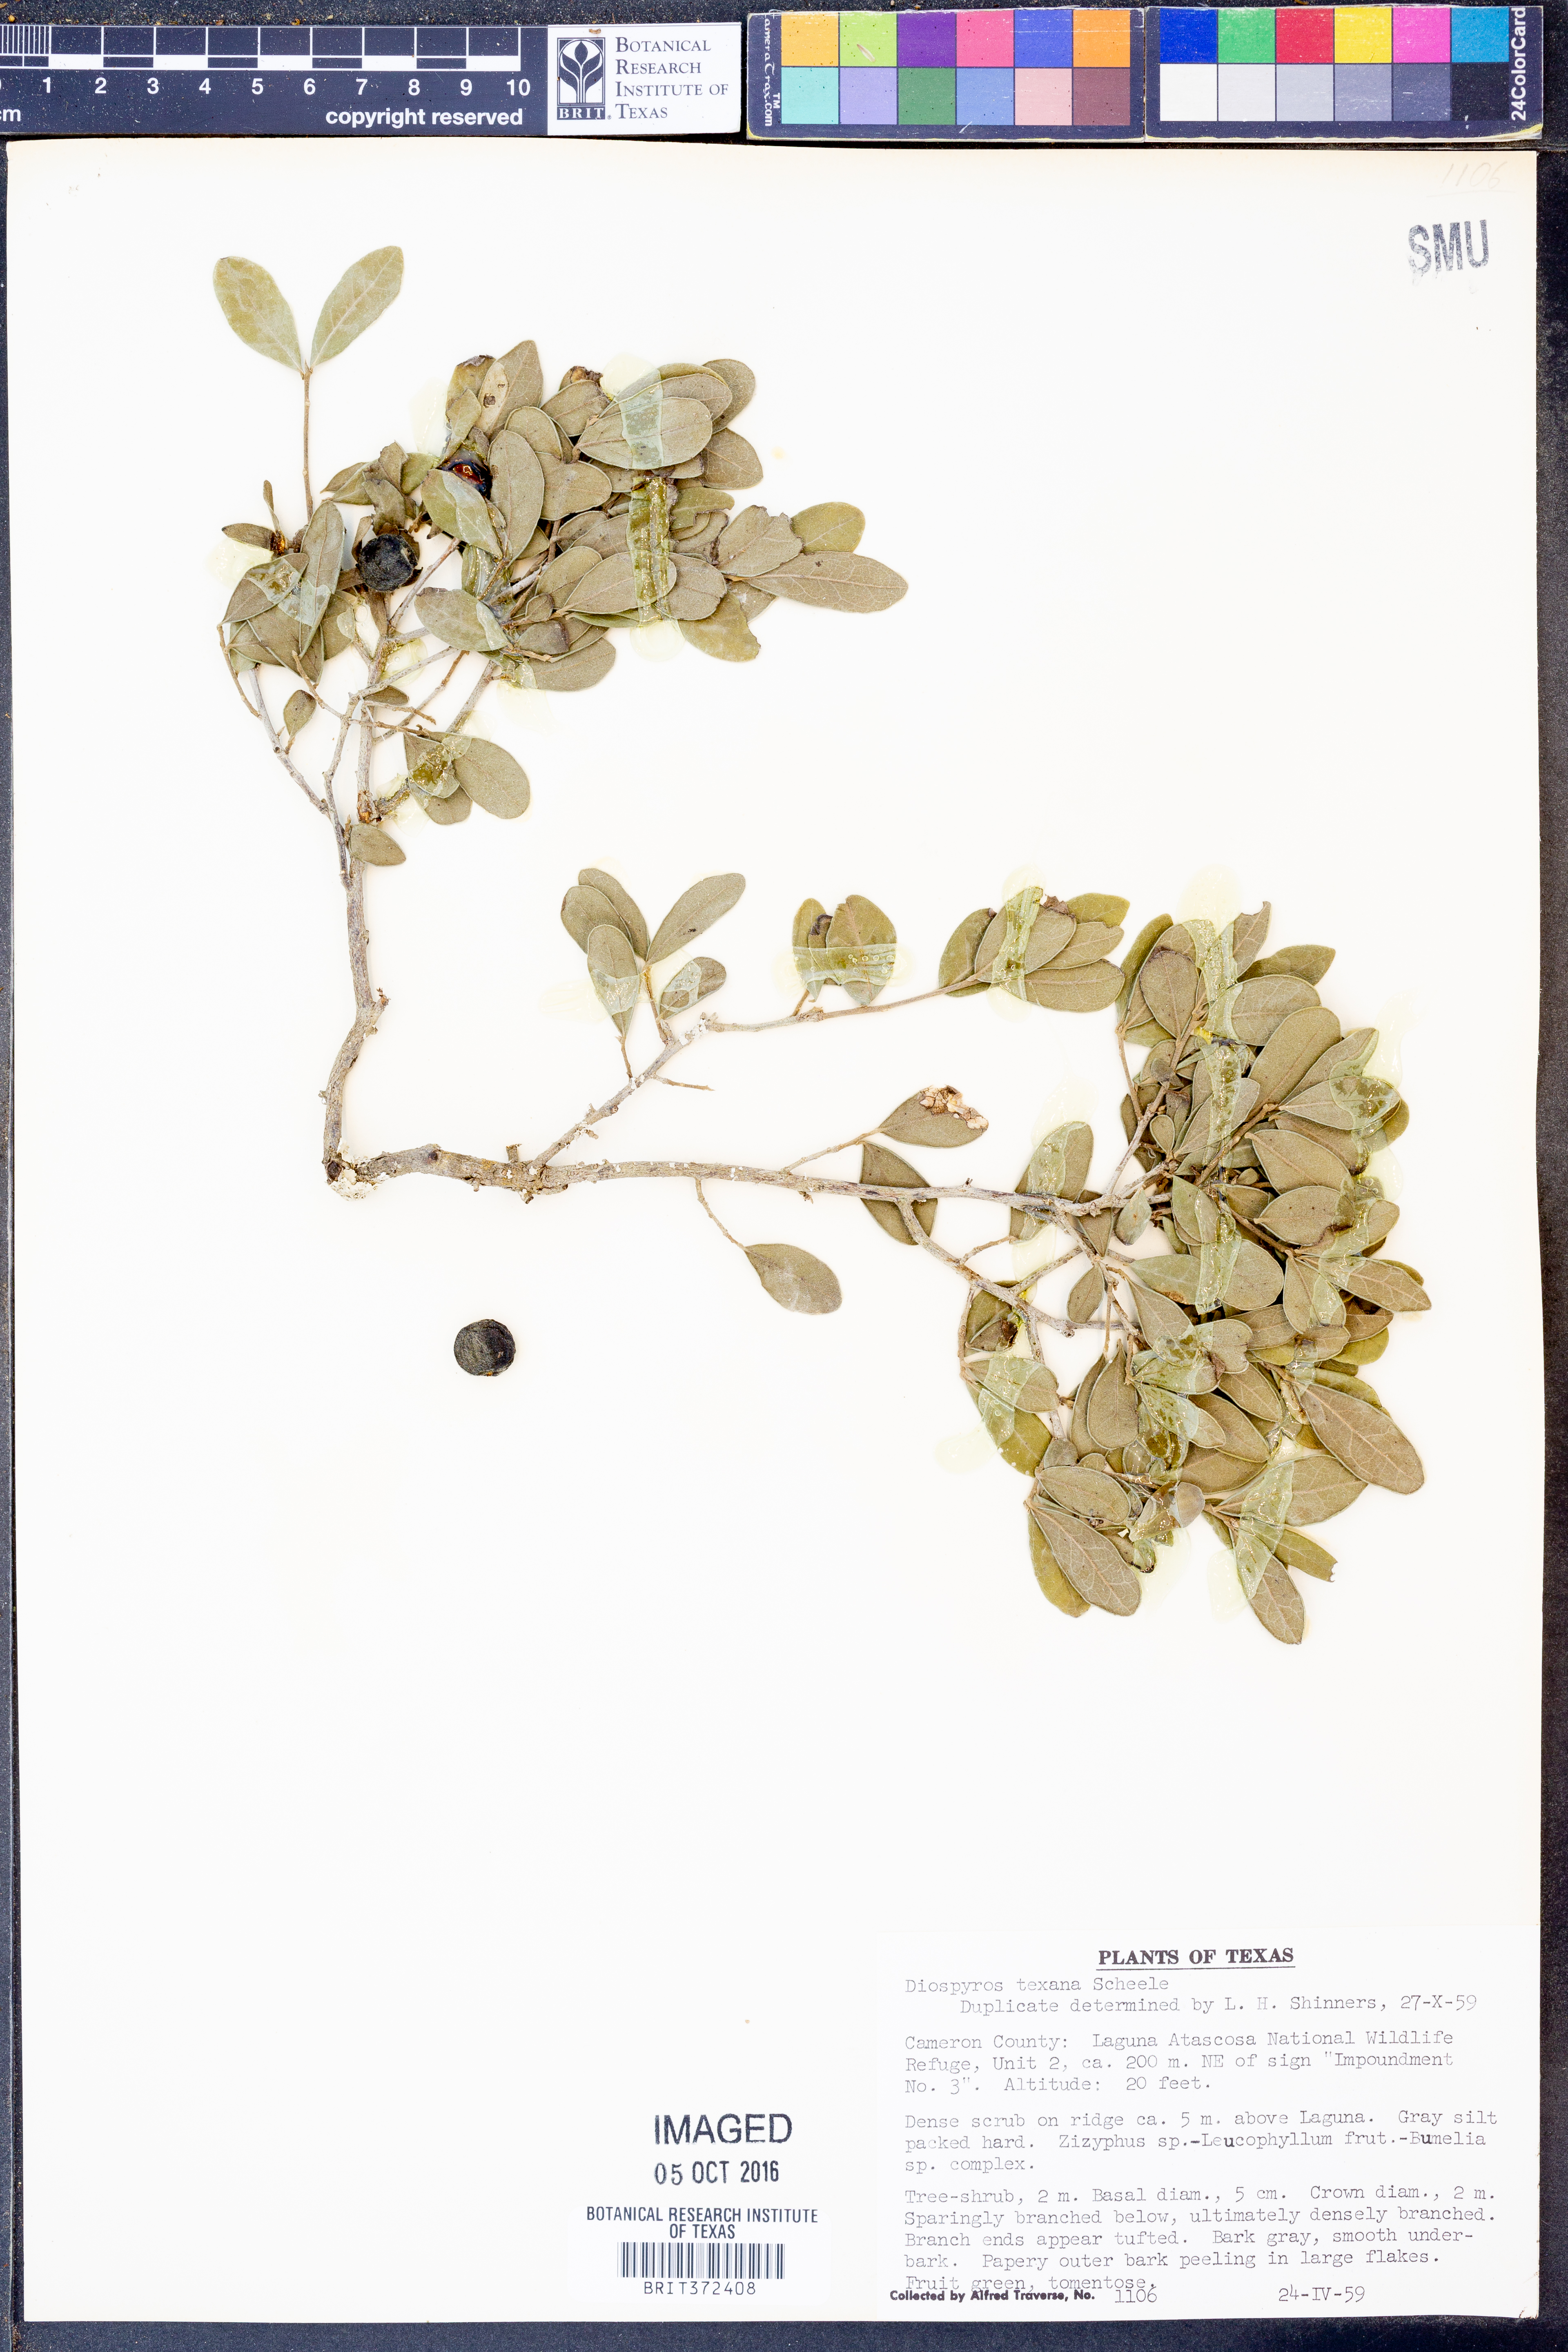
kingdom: Plantae
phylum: Tracheophyta
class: Magnoliopsida
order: Asterales
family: Asteraceae
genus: Solidago
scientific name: Solidago
